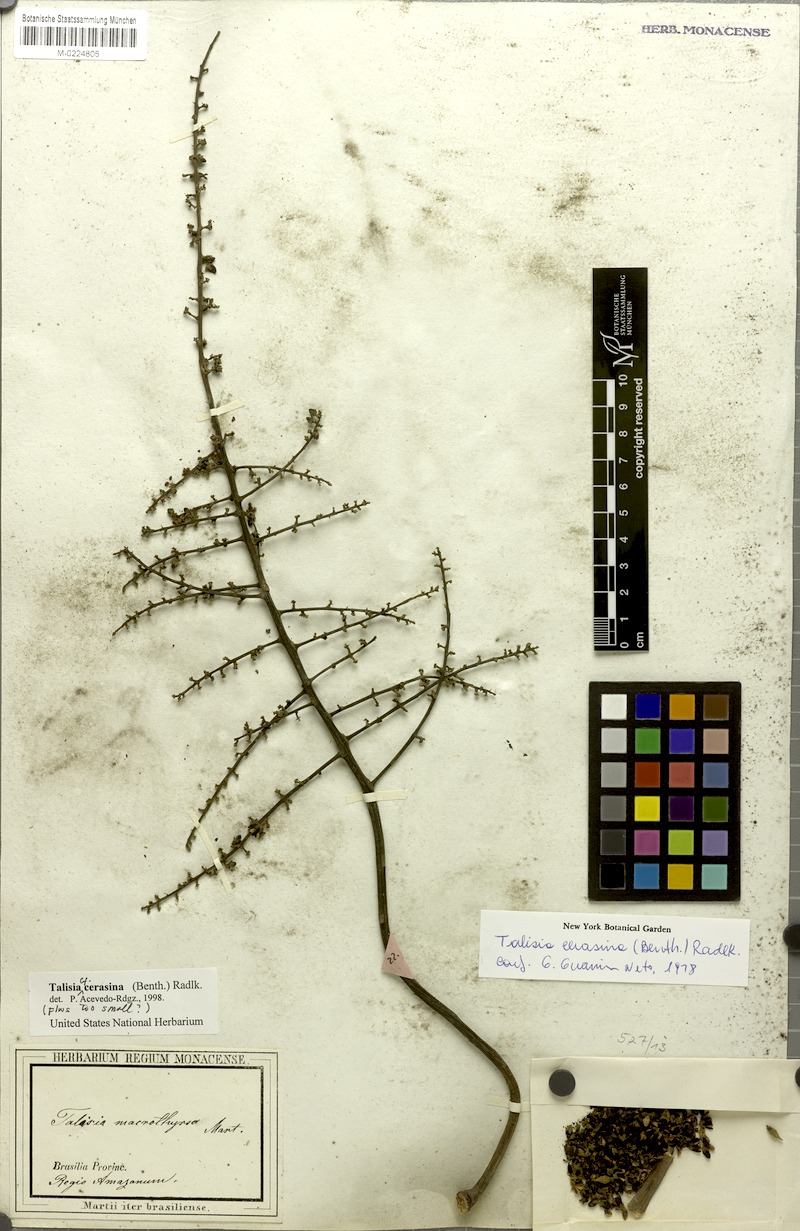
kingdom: Plantae
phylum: Tracheophyta
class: Magnoliopsida
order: Sapindales
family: Sapindaceae
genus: Talisia
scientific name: Talisia cerasina
